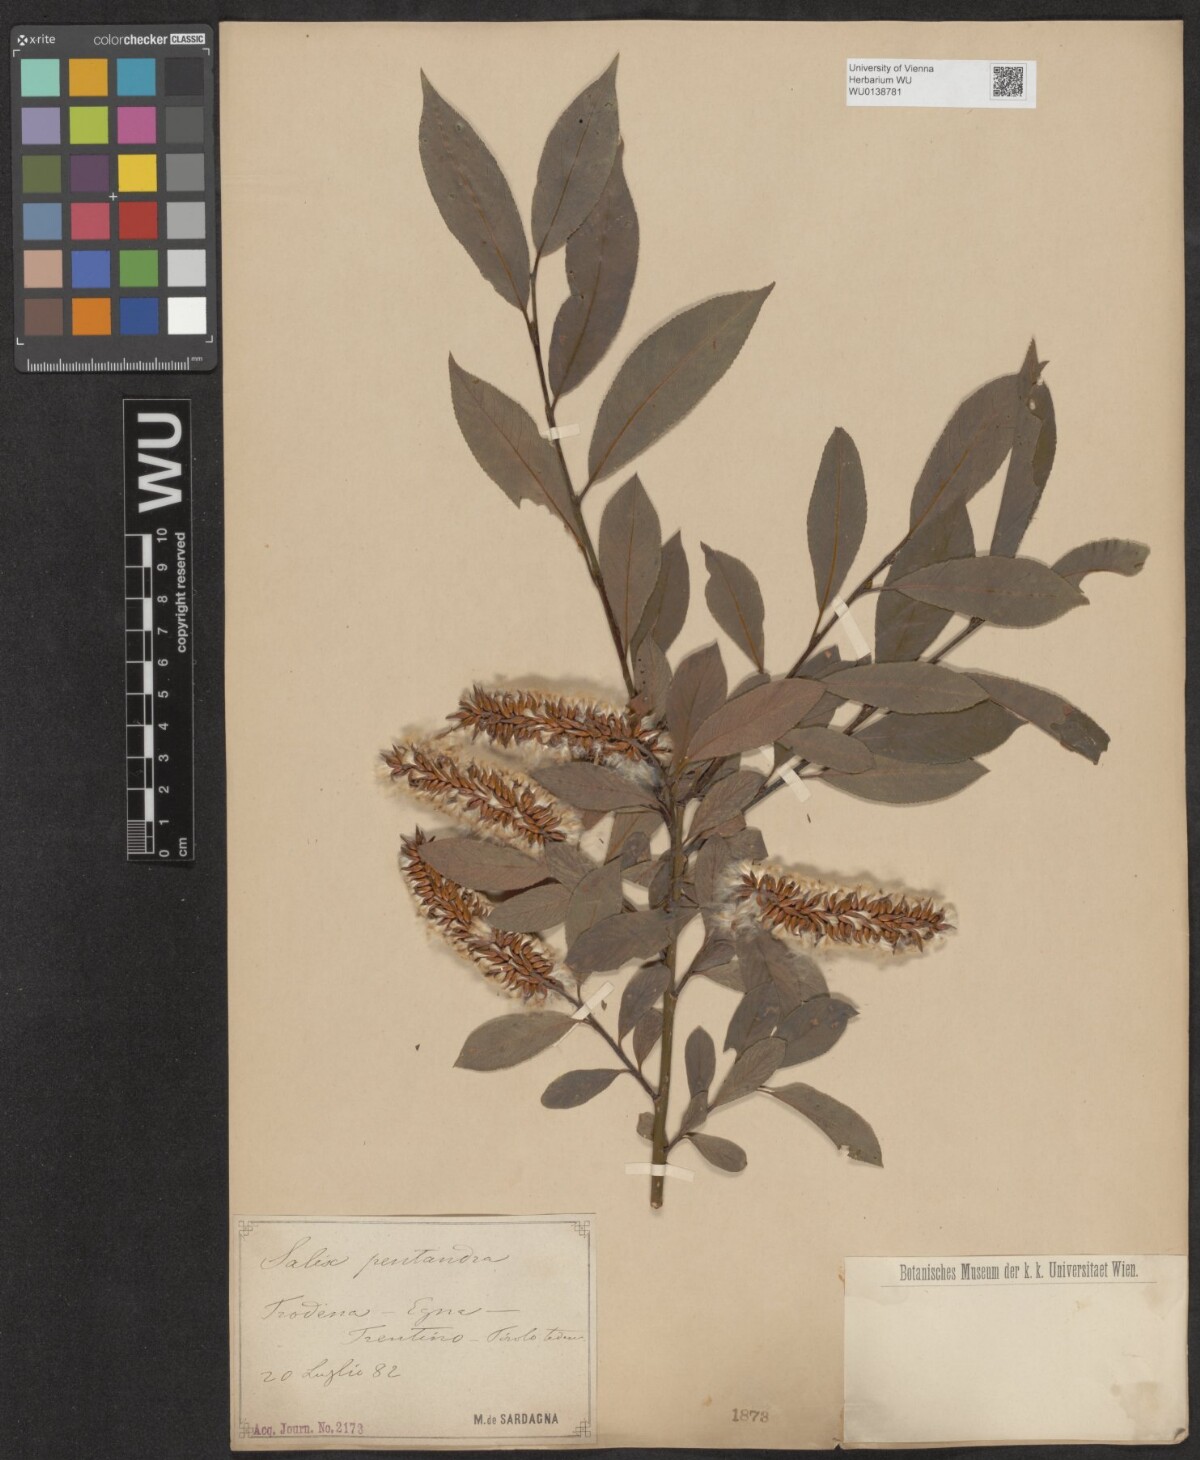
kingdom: Plantae
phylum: Tracheophyta
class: Magnoliopsida
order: Malpighiales
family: Salicaceae
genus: Salix
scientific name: Salix pentandra
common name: Bay willow
